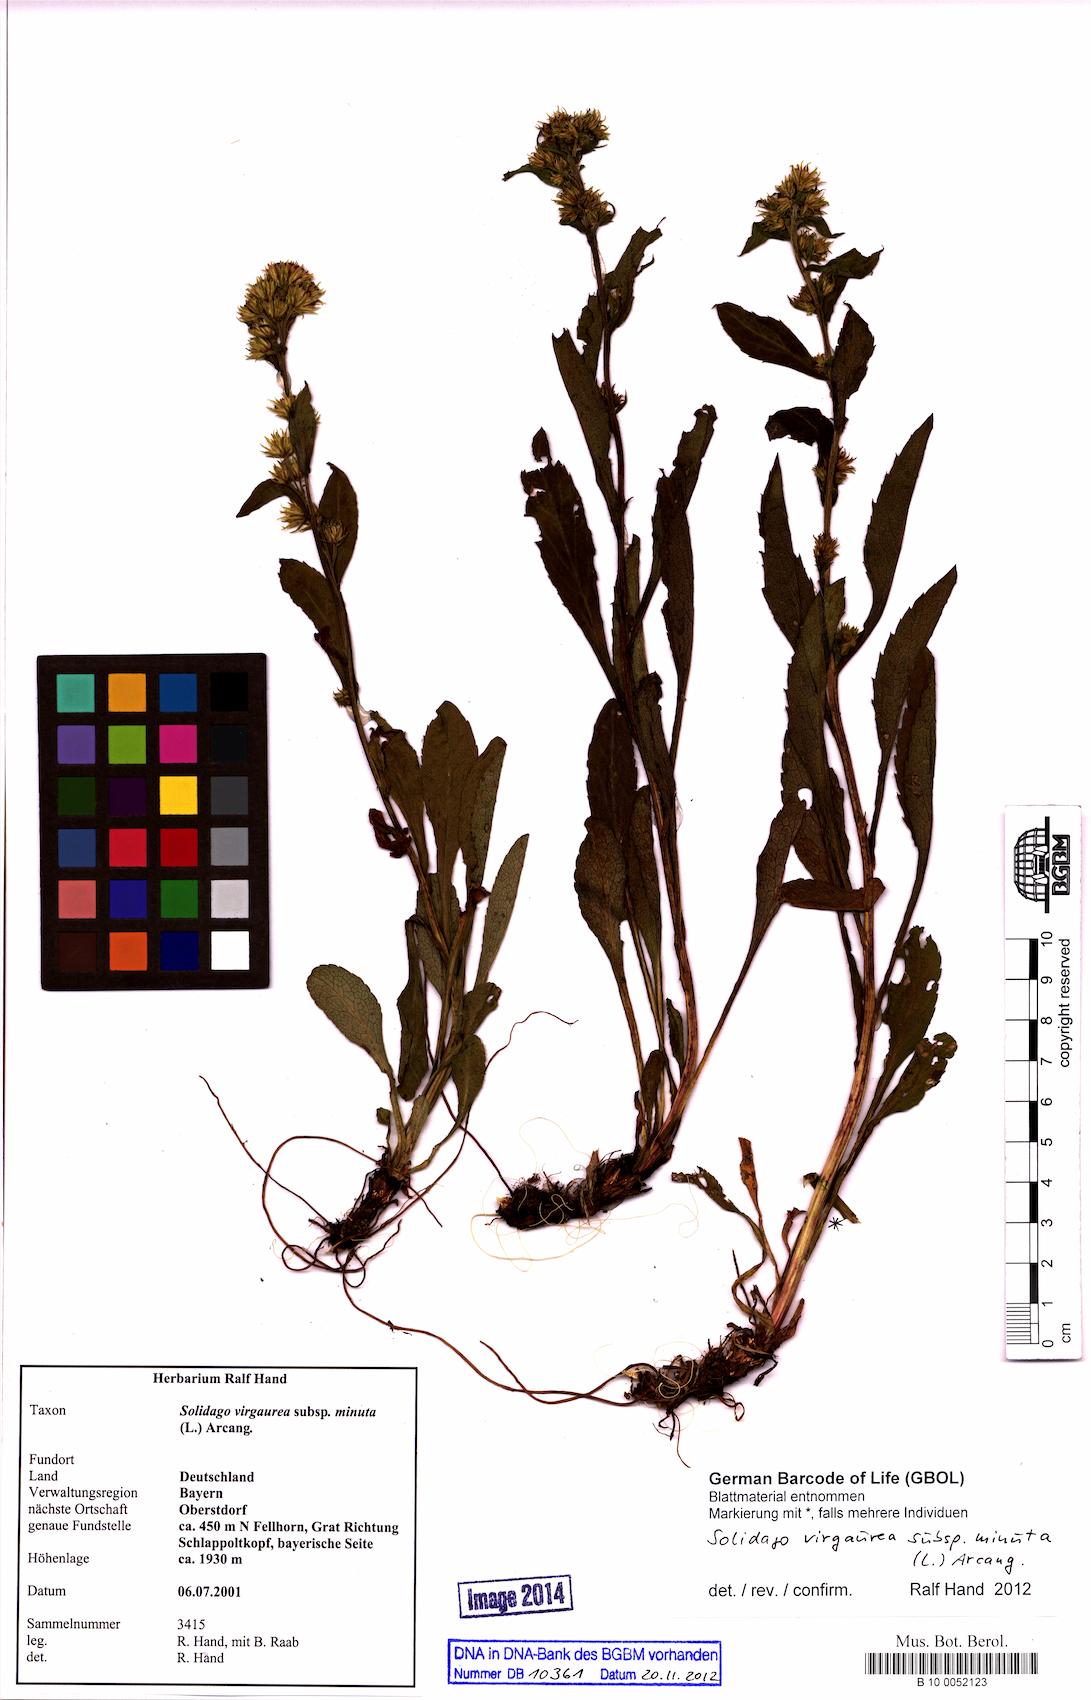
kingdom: Plantae
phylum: Tracheophyta
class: Magnoliopsida
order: Asterales
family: Asteraceae
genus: Solidago
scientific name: Solidago virgaurea
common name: Goldenrod
